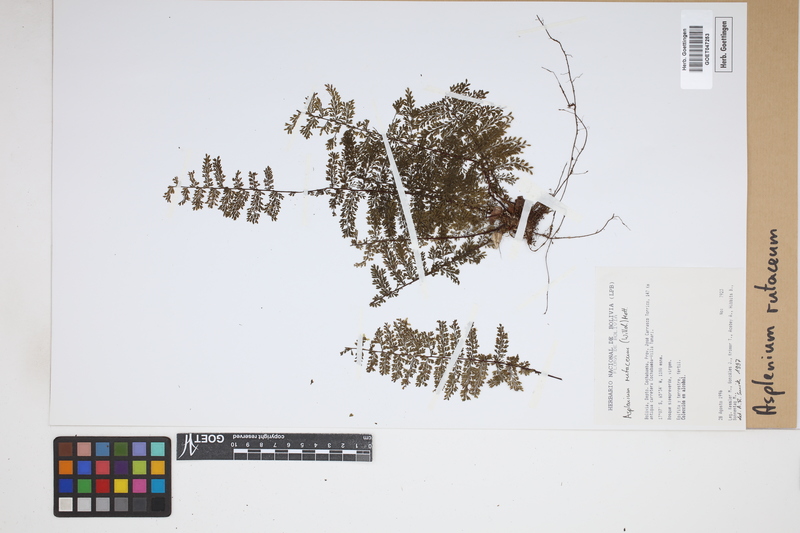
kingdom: Plantae
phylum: Tracheophyta
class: Polypodiopsida
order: Polypodiales
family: Aspleniaceae
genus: Asplenium
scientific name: Asplenium rutaceum
